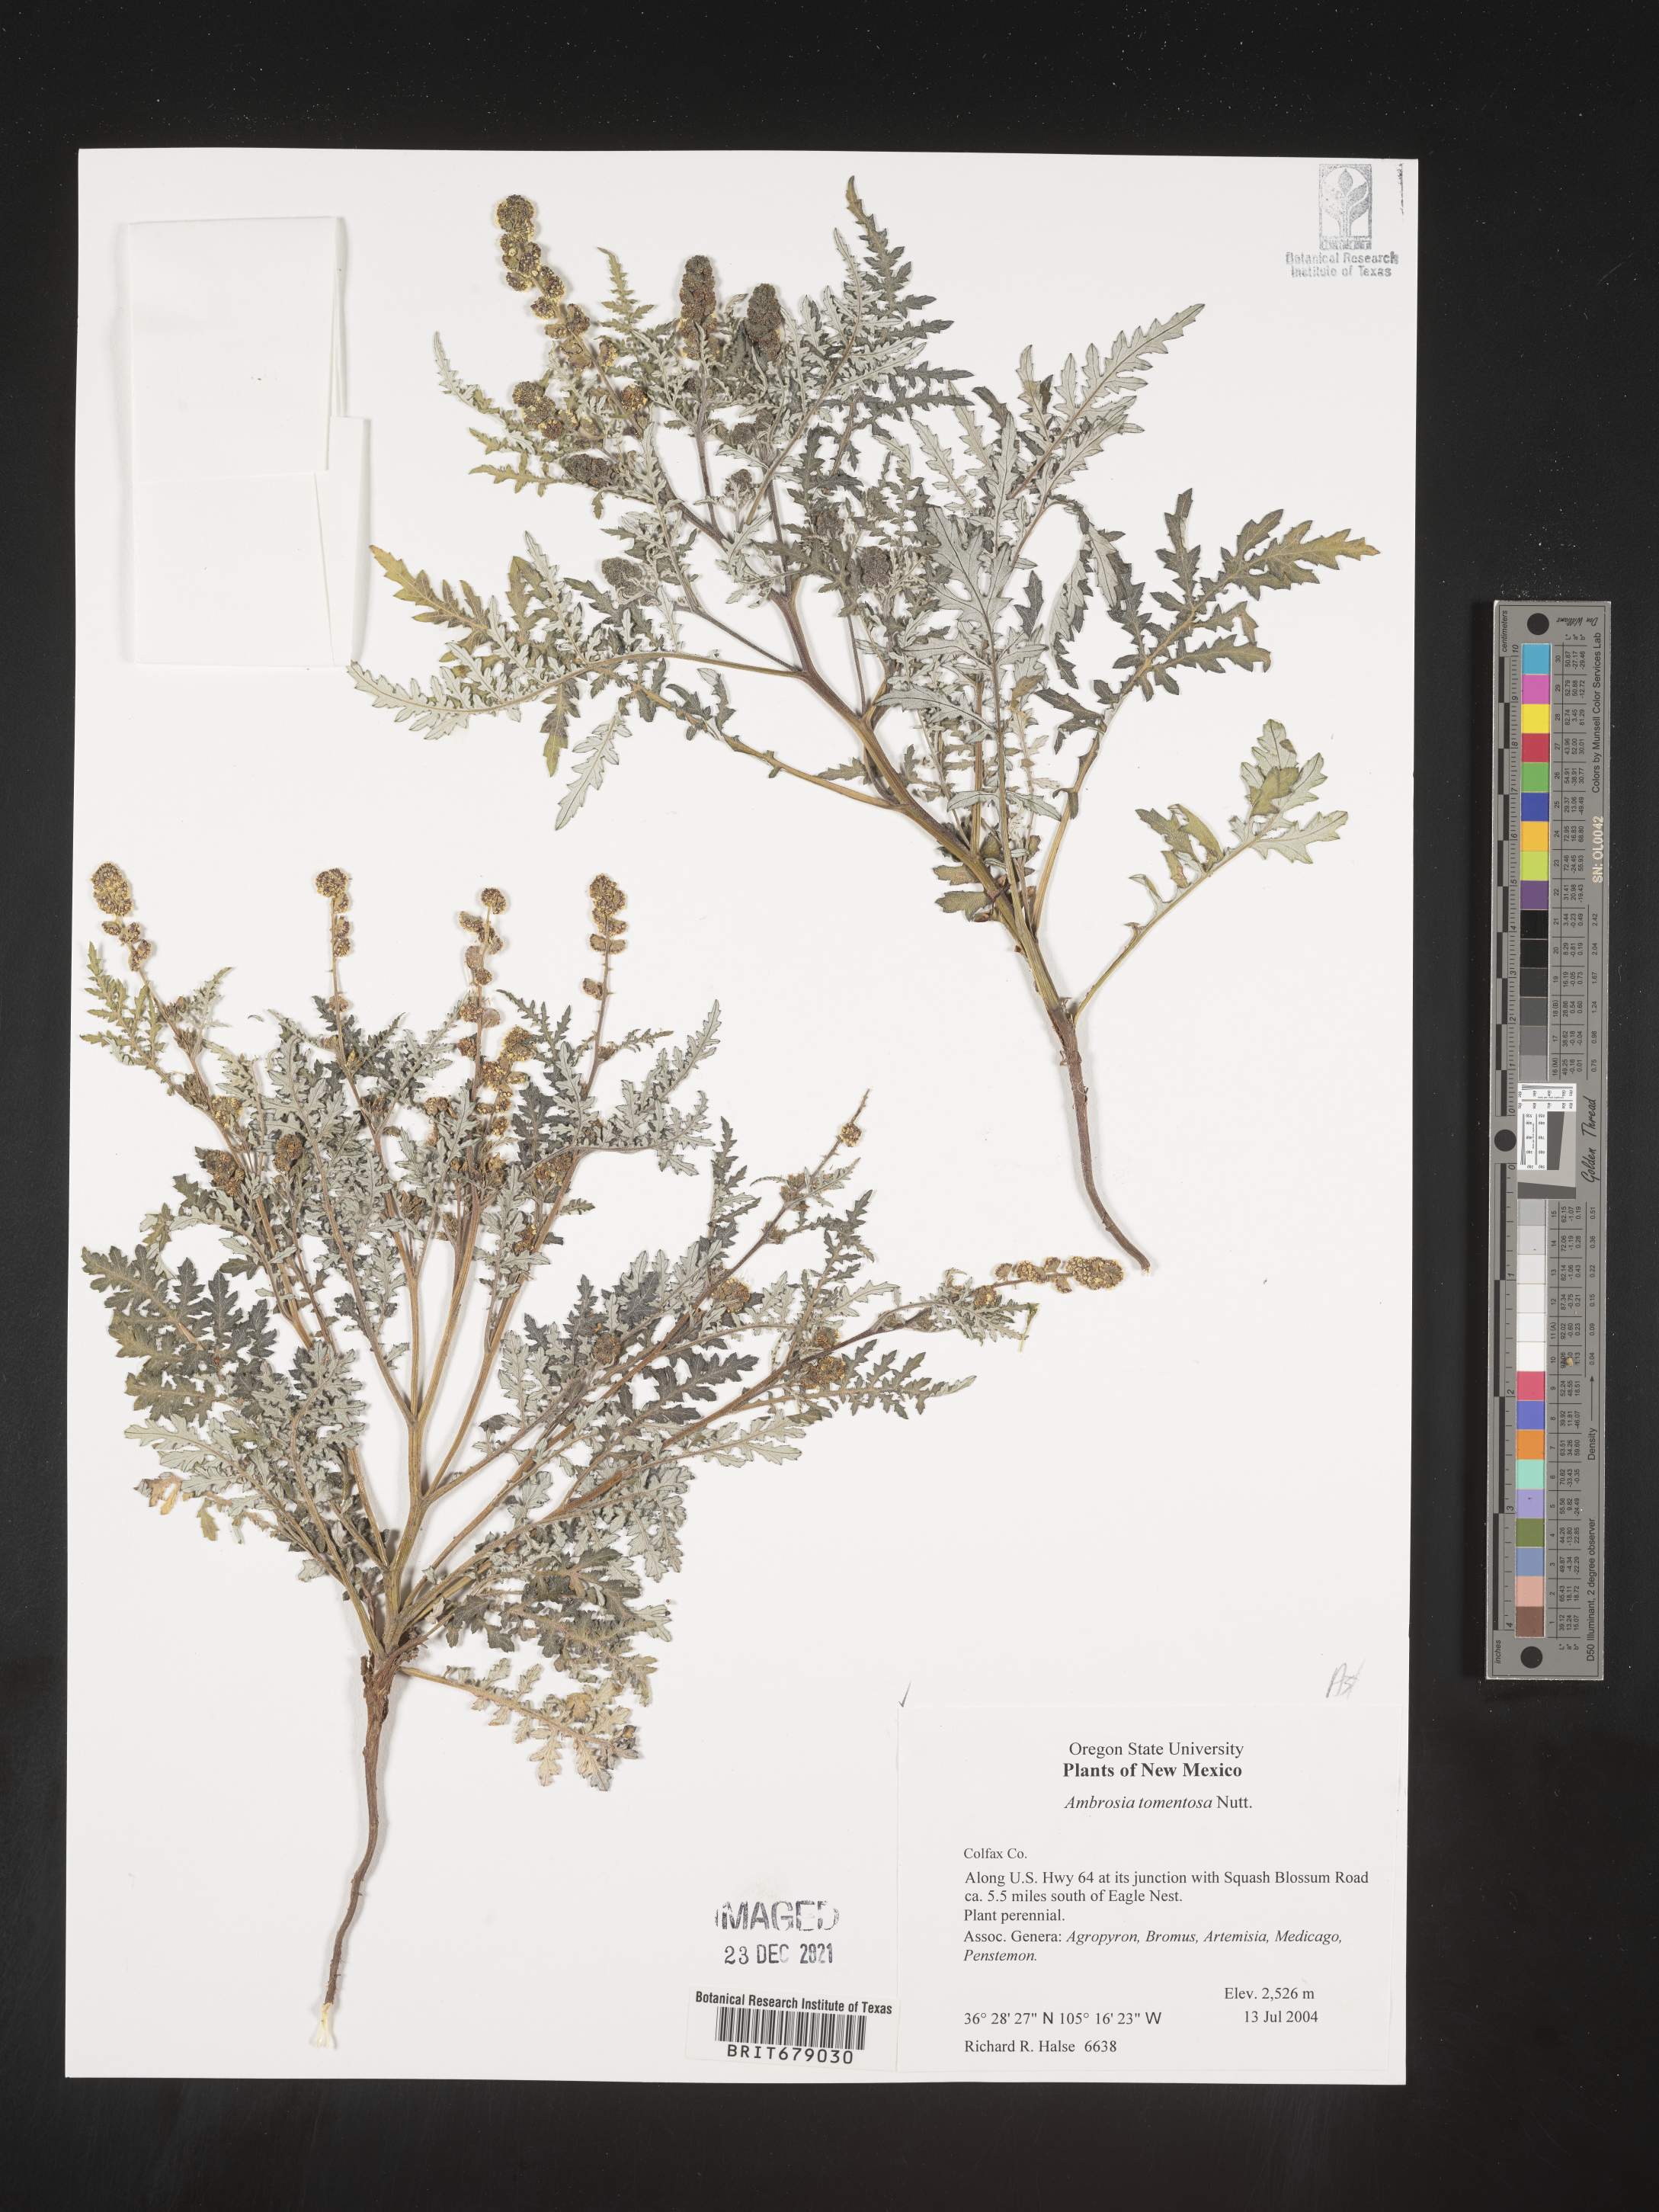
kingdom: Plantae
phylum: Tracheophyta
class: Magnoliopsida
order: Asterales
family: Asteraceae
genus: Ambrosia
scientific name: Ambrosia
